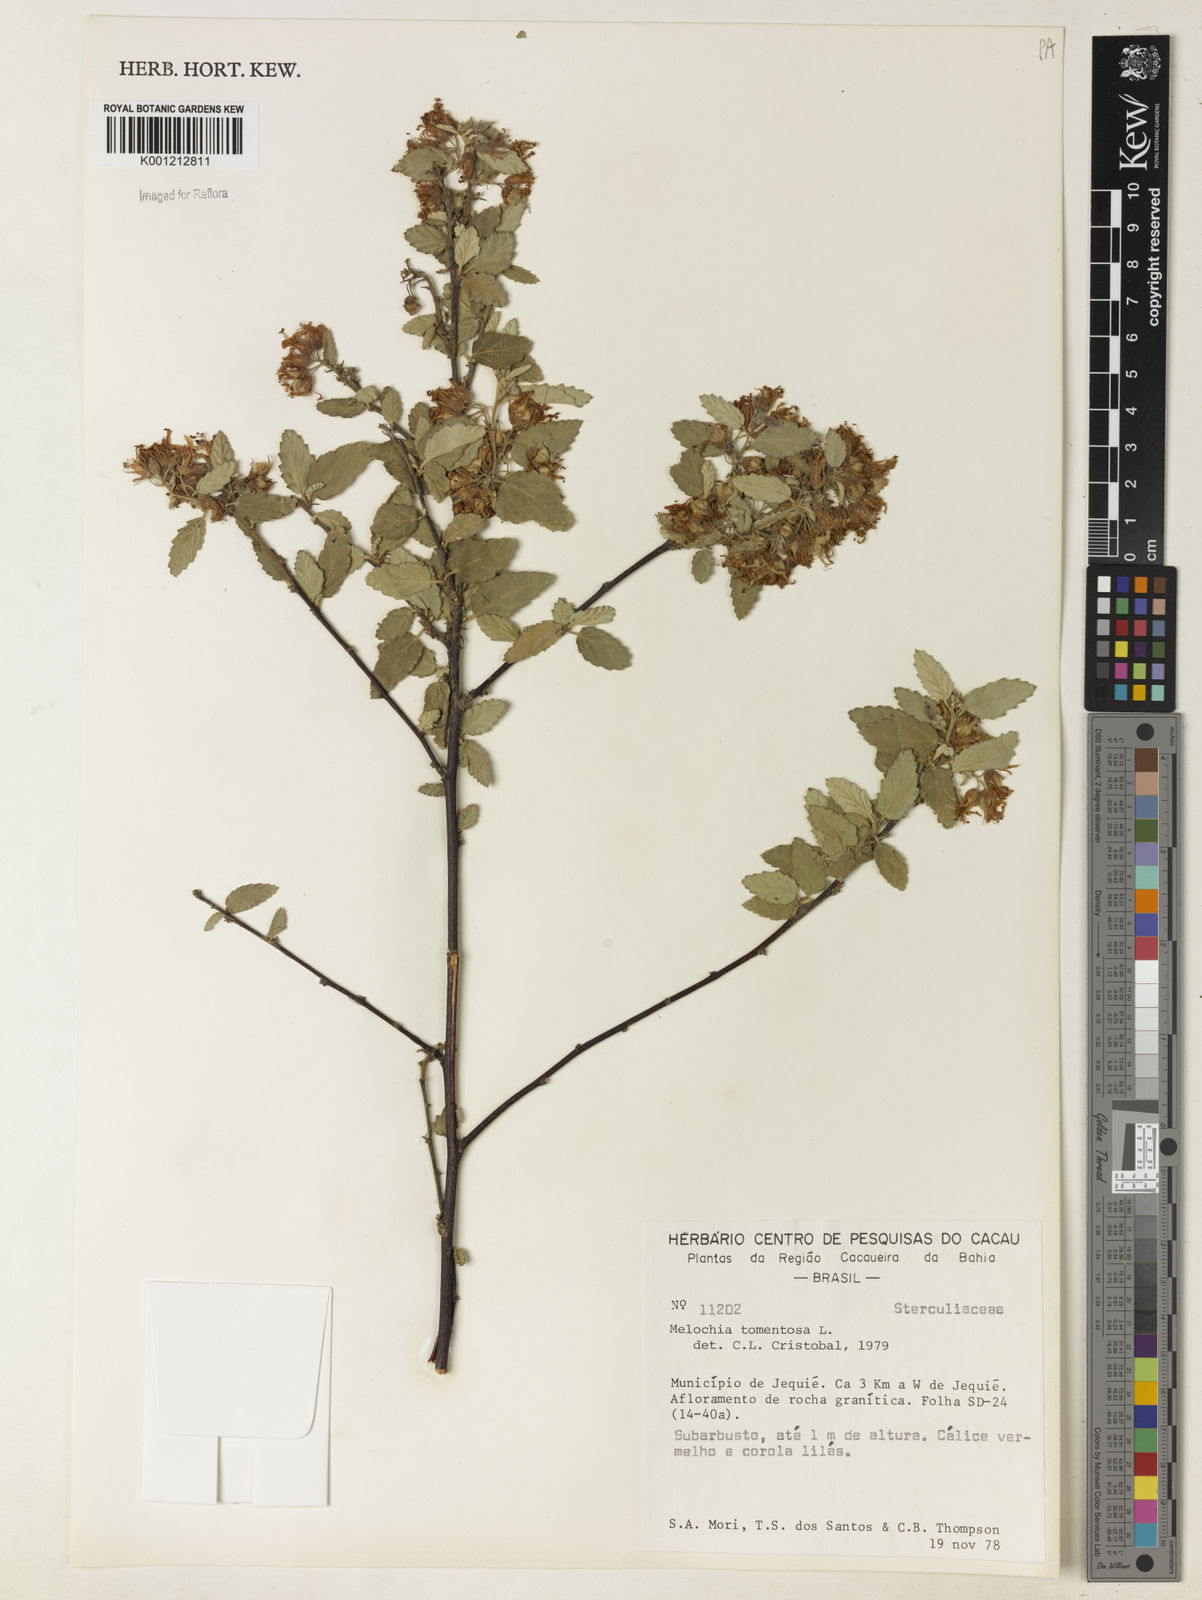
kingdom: Plantae
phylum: Tracheophyta
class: Magnoliopsida
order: Malvales
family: Malvaceae
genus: Melochia
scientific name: Melochia tomentosa
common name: Black torch
